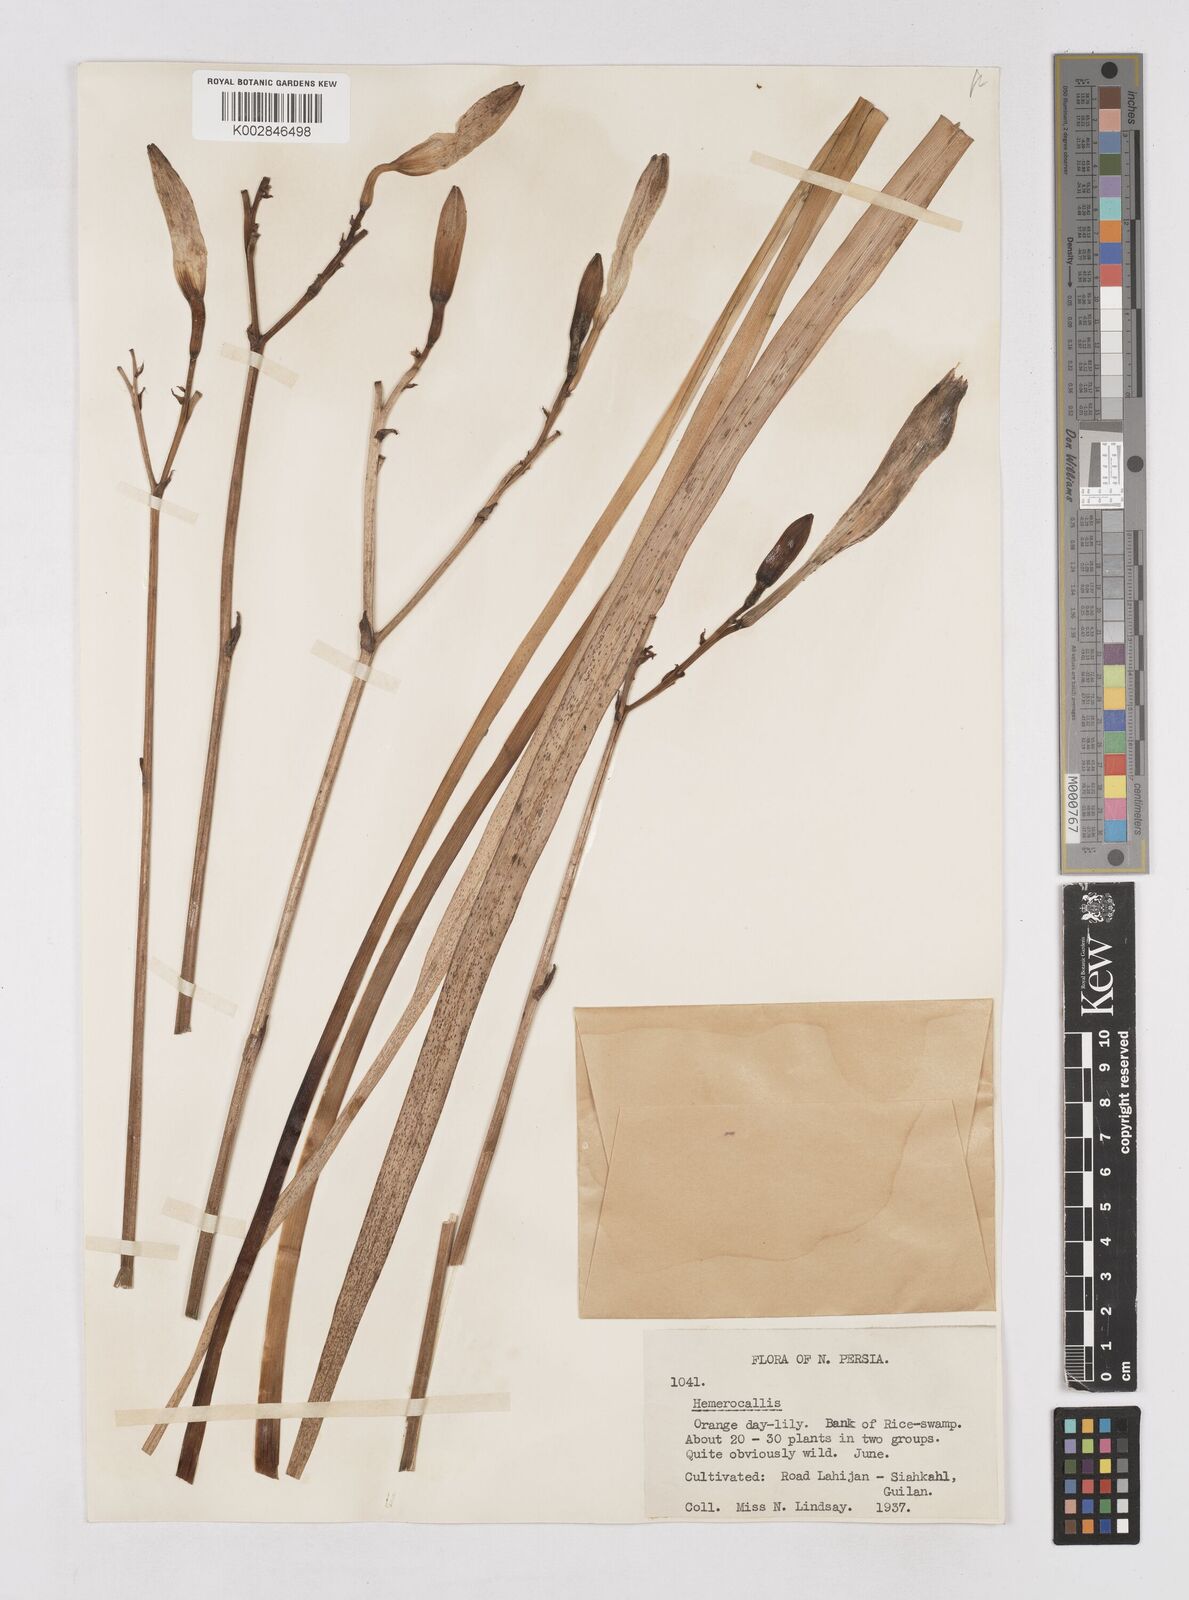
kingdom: Plantae
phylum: Tracheophyta
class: Liliopsida
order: Asparagales
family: Asphodelaceae
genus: Hemerocallis
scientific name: Hemerocallis lilioasphodelus
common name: Yellow day-lily
